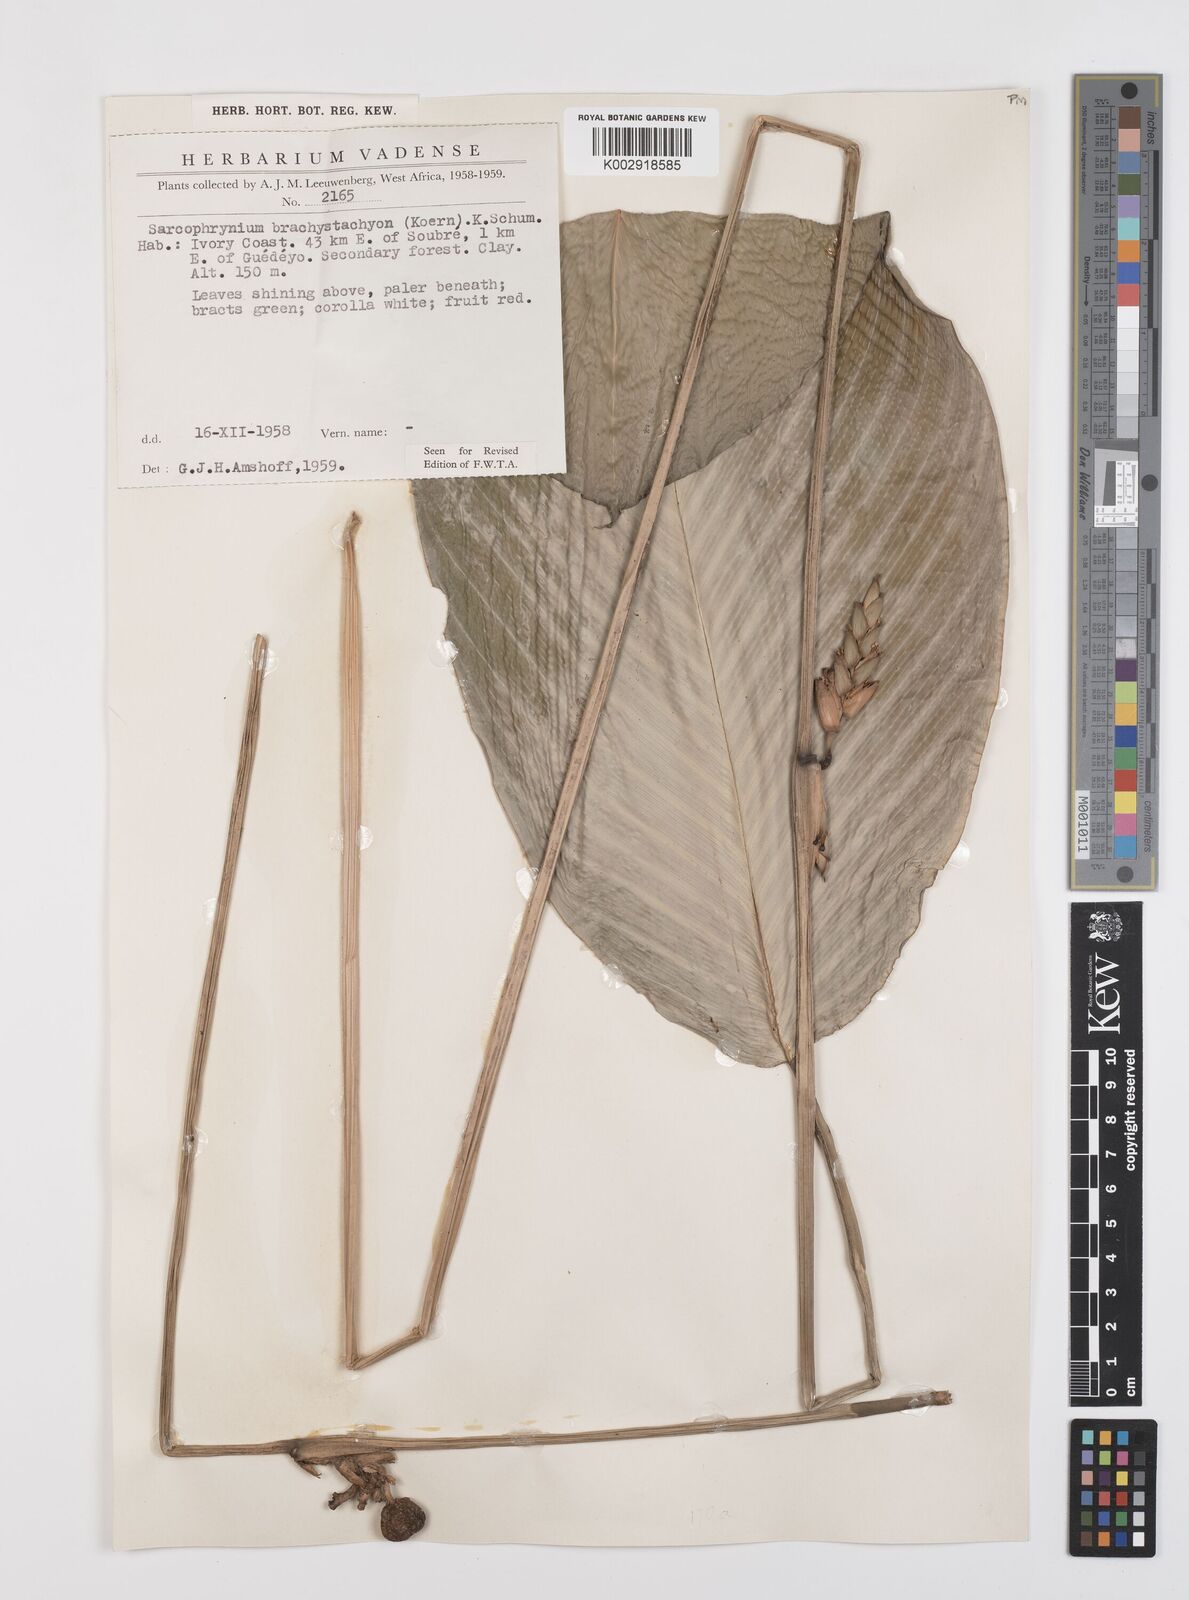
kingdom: Plantae
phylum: Tracheophyta
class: Liliopsida
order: Zingiberales
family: Marantaceae
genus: Sarcophrynium
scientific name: Sarcophrynium brachystachyum
